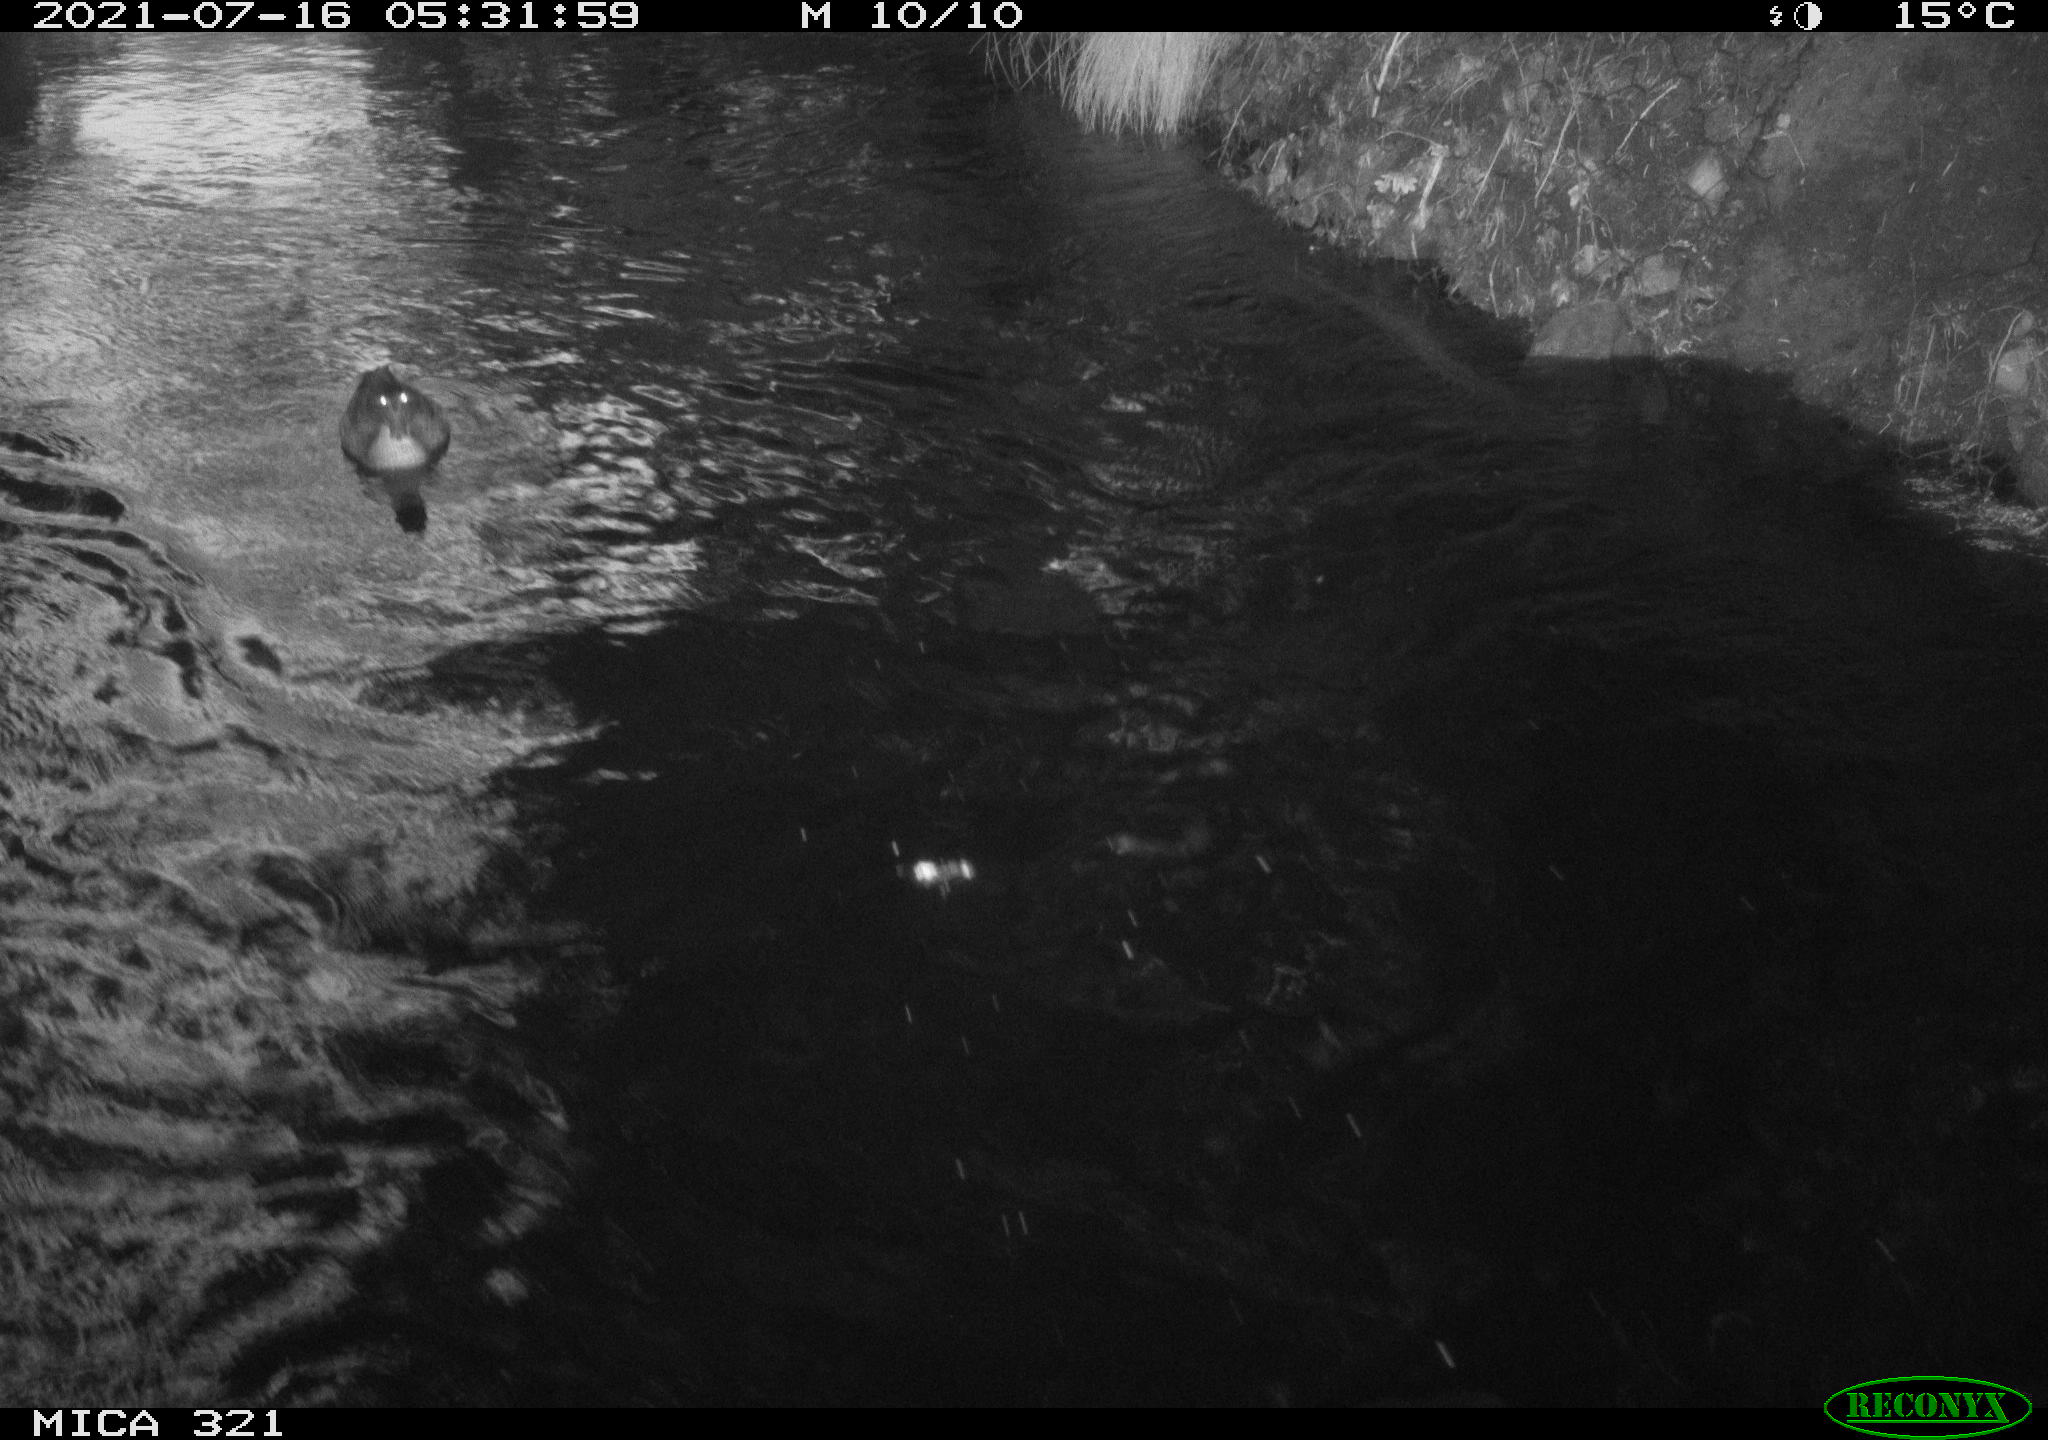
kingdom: Animalia
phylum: Chordata
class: Aves
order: Gruiformes
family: Rallidae
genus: Fulica
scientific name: Fulica atra
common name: Eurasian coot
